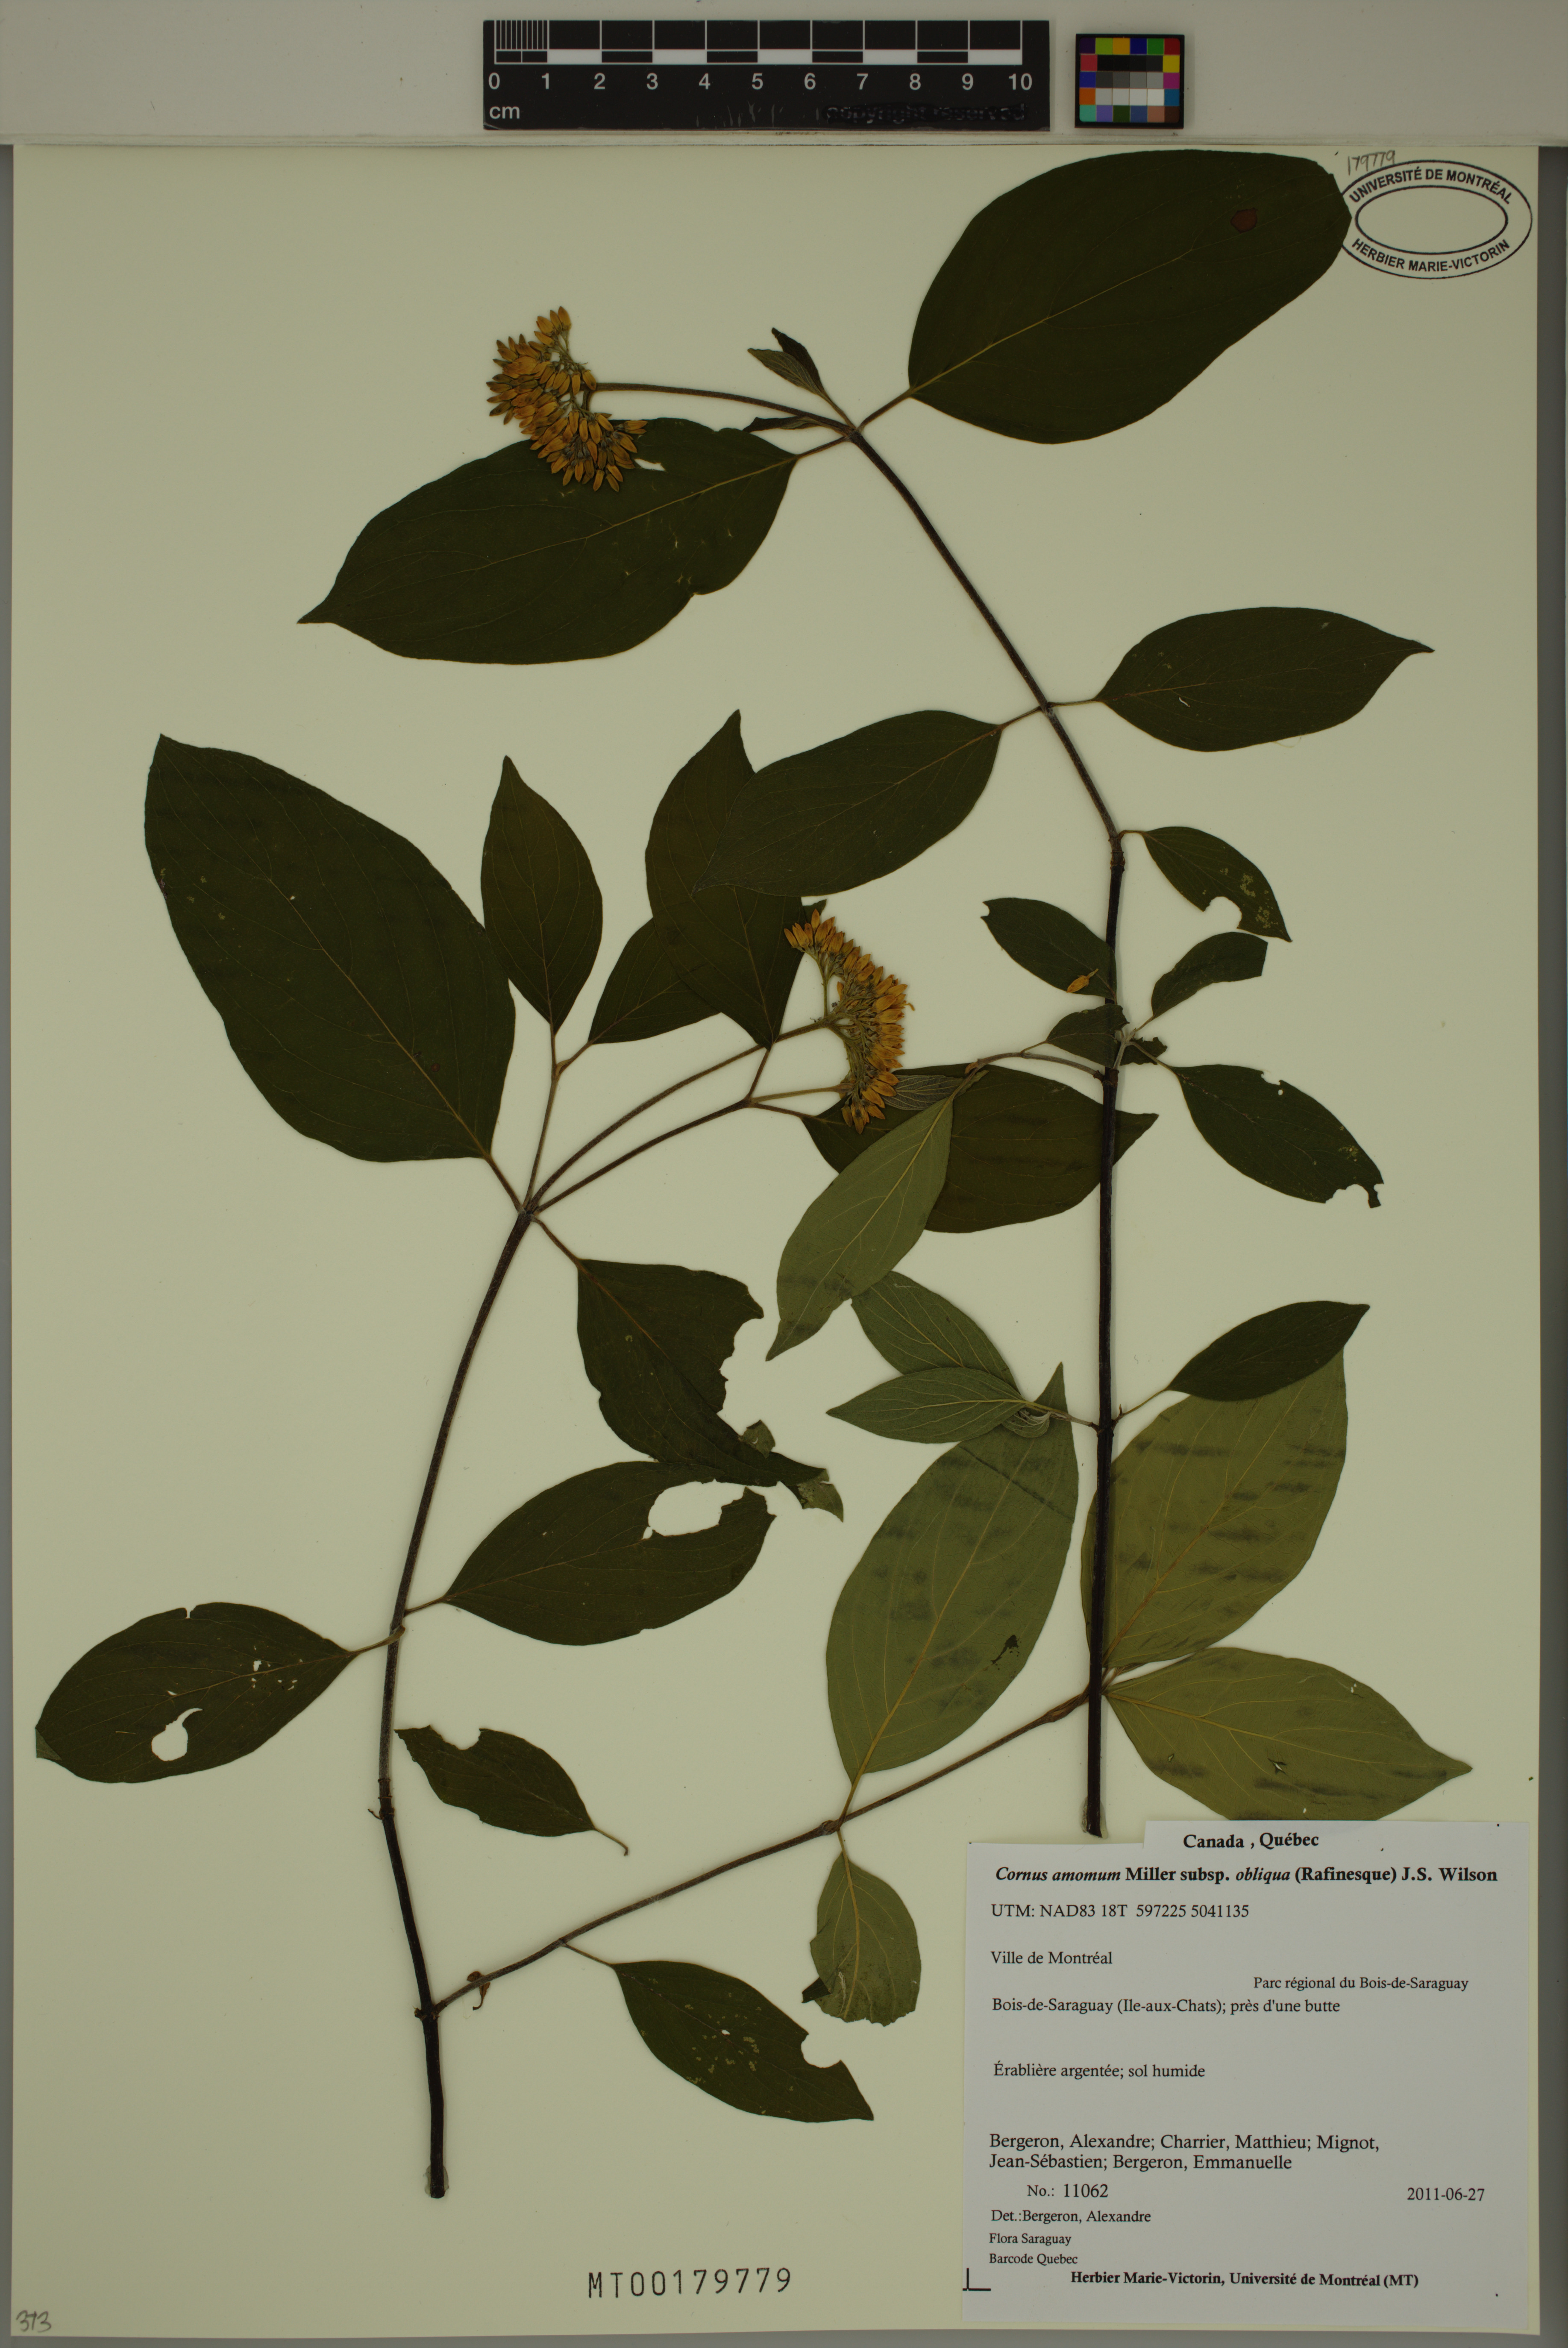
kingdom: Plantae
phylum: Tracheophyta
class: Magnoliopsida
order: Cornales
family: Cornaceae
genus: Cornus
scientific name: Cornus obliqua
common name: Pale dogwood
